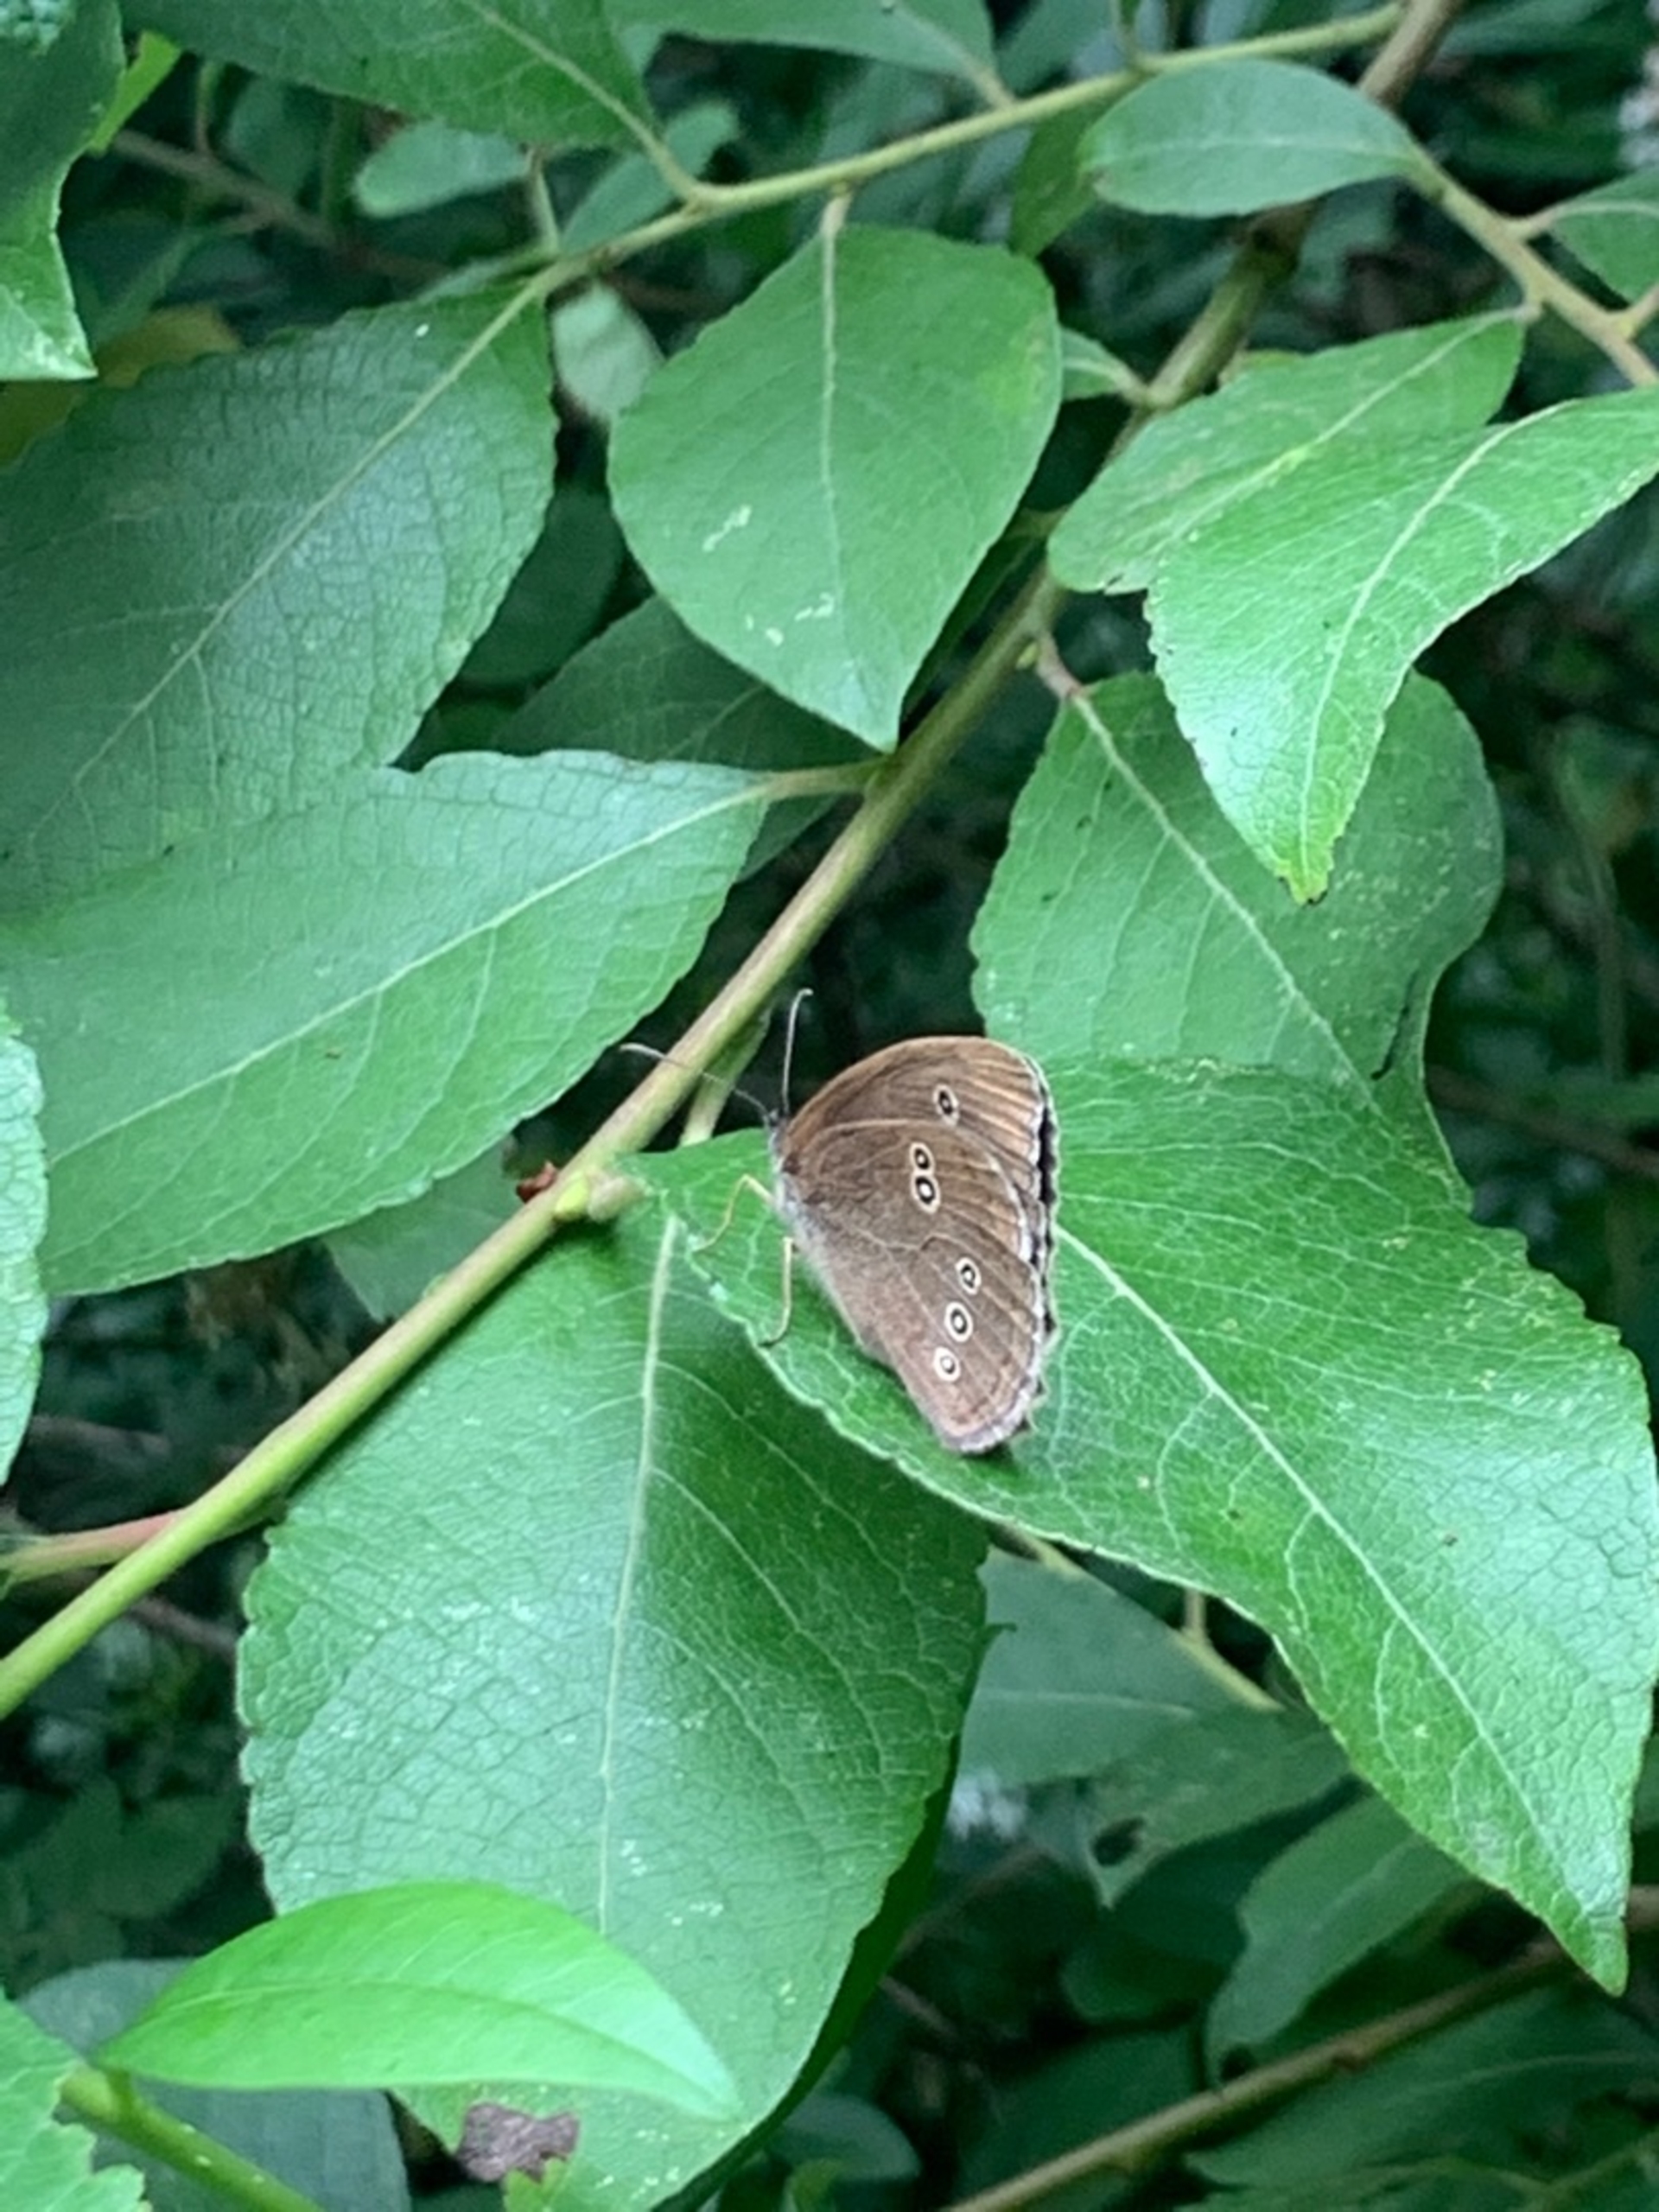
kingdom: Animalia
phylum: Arthropoda
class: Insecta
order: Lepidoptera
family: Nymphalidae
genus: Aphantopus
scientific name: Aphantopus hyperantus
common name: Engrandøje
